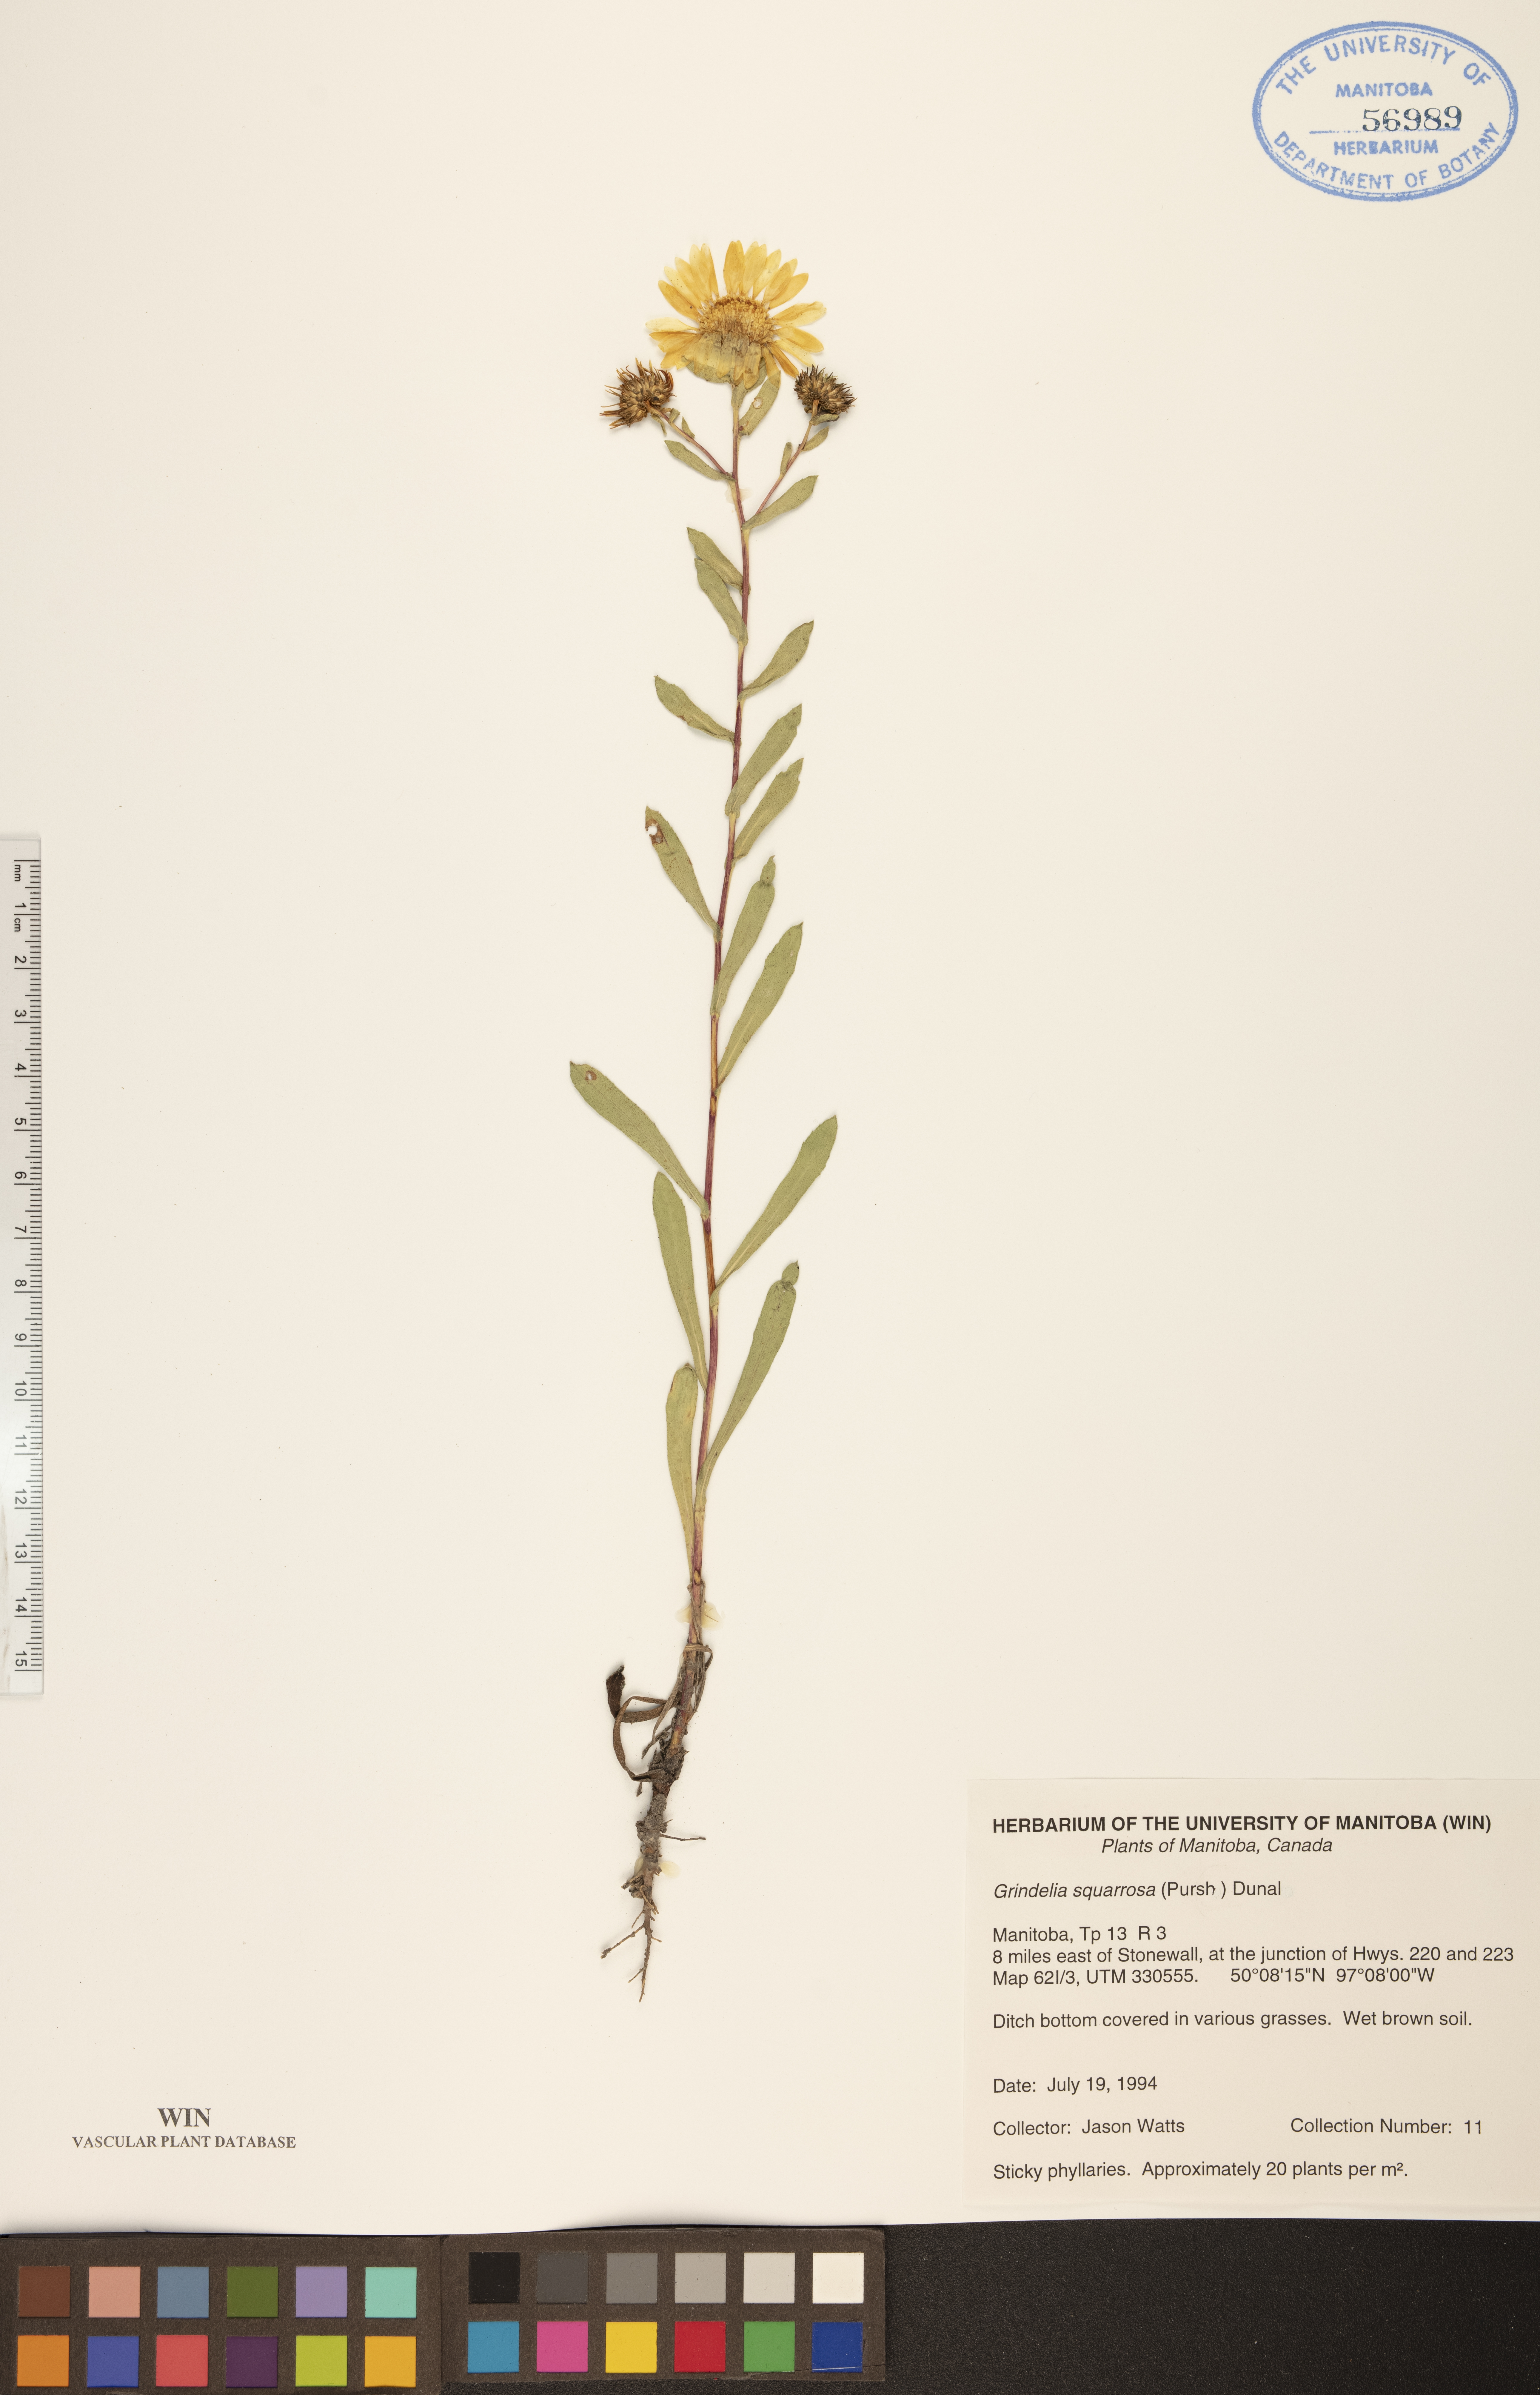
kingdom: Plantae
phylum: Tracheophyta
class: Magnoliopsida
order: Asterales
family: Asteraceae
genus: Grindelia
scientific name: Grindelia squarrosa
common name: Curly-cup gumweed
